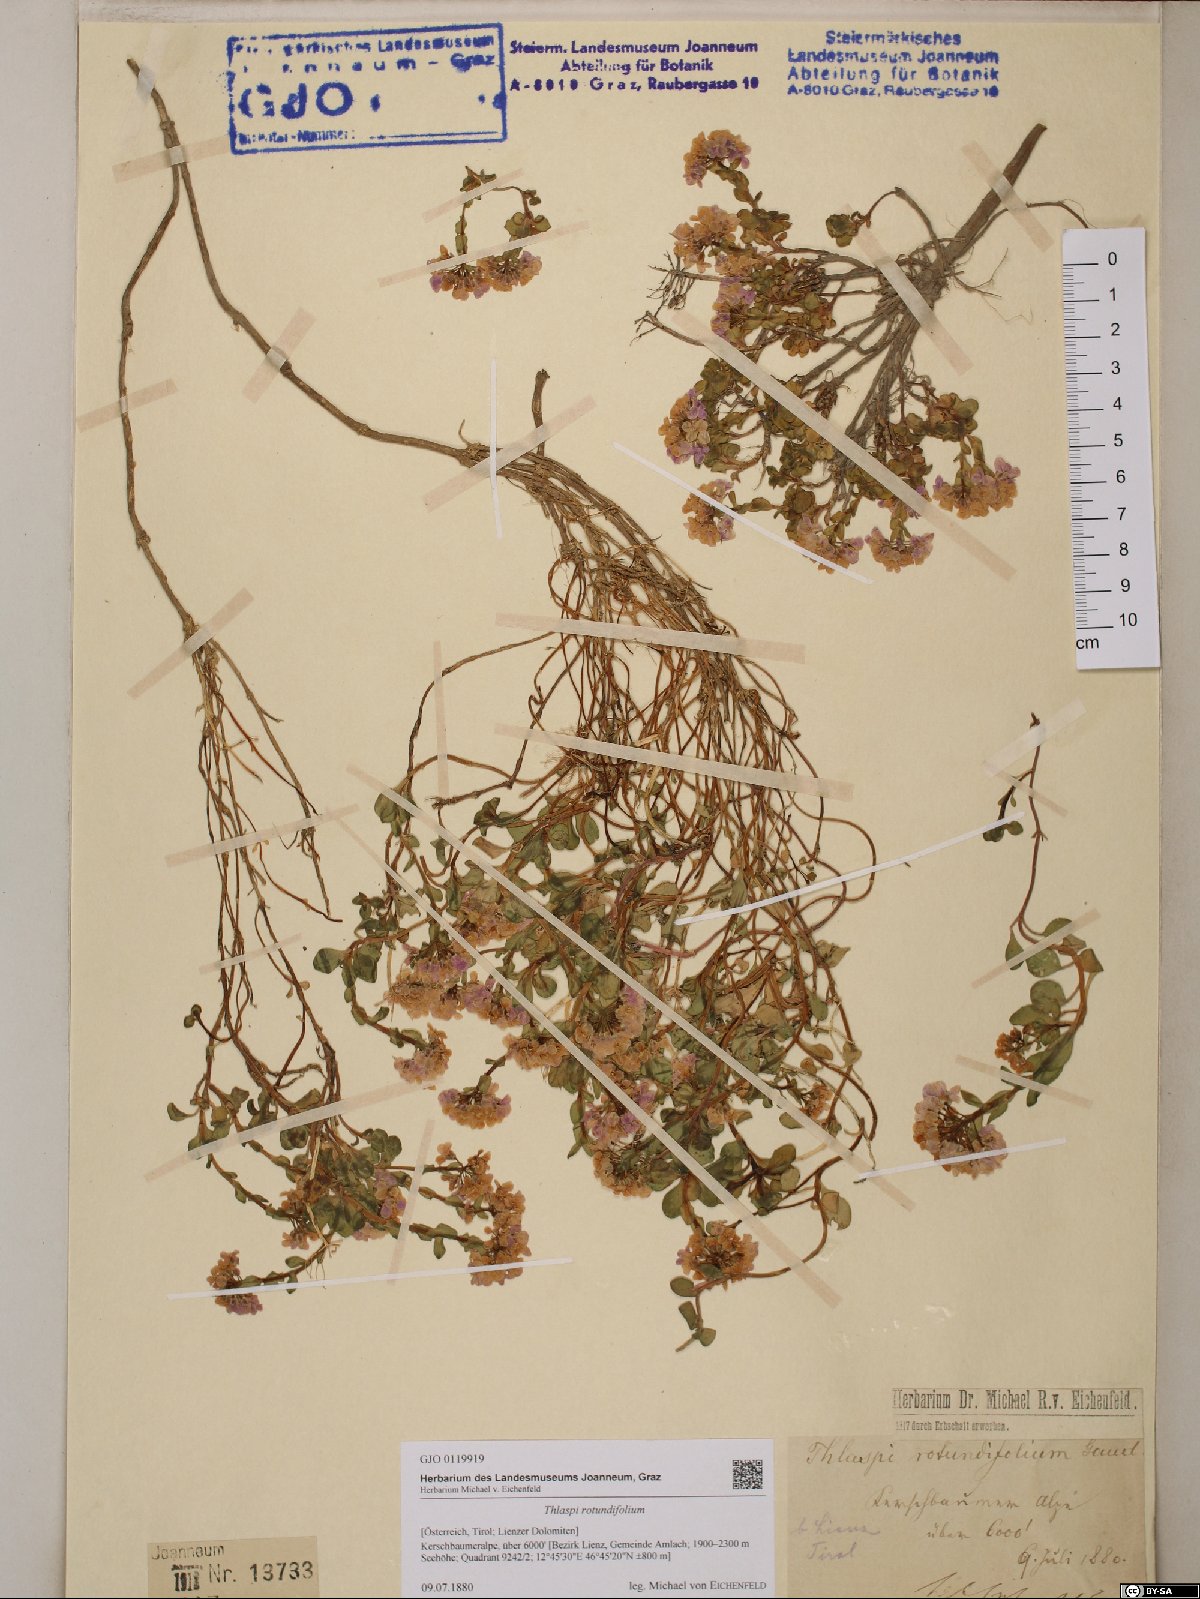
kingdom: Plantae
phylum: Tracheophyta
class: Magnoliopsida
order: Brassicales
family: Brassicaceae
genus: Noccaea
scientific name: Noccaea rotundifolia
